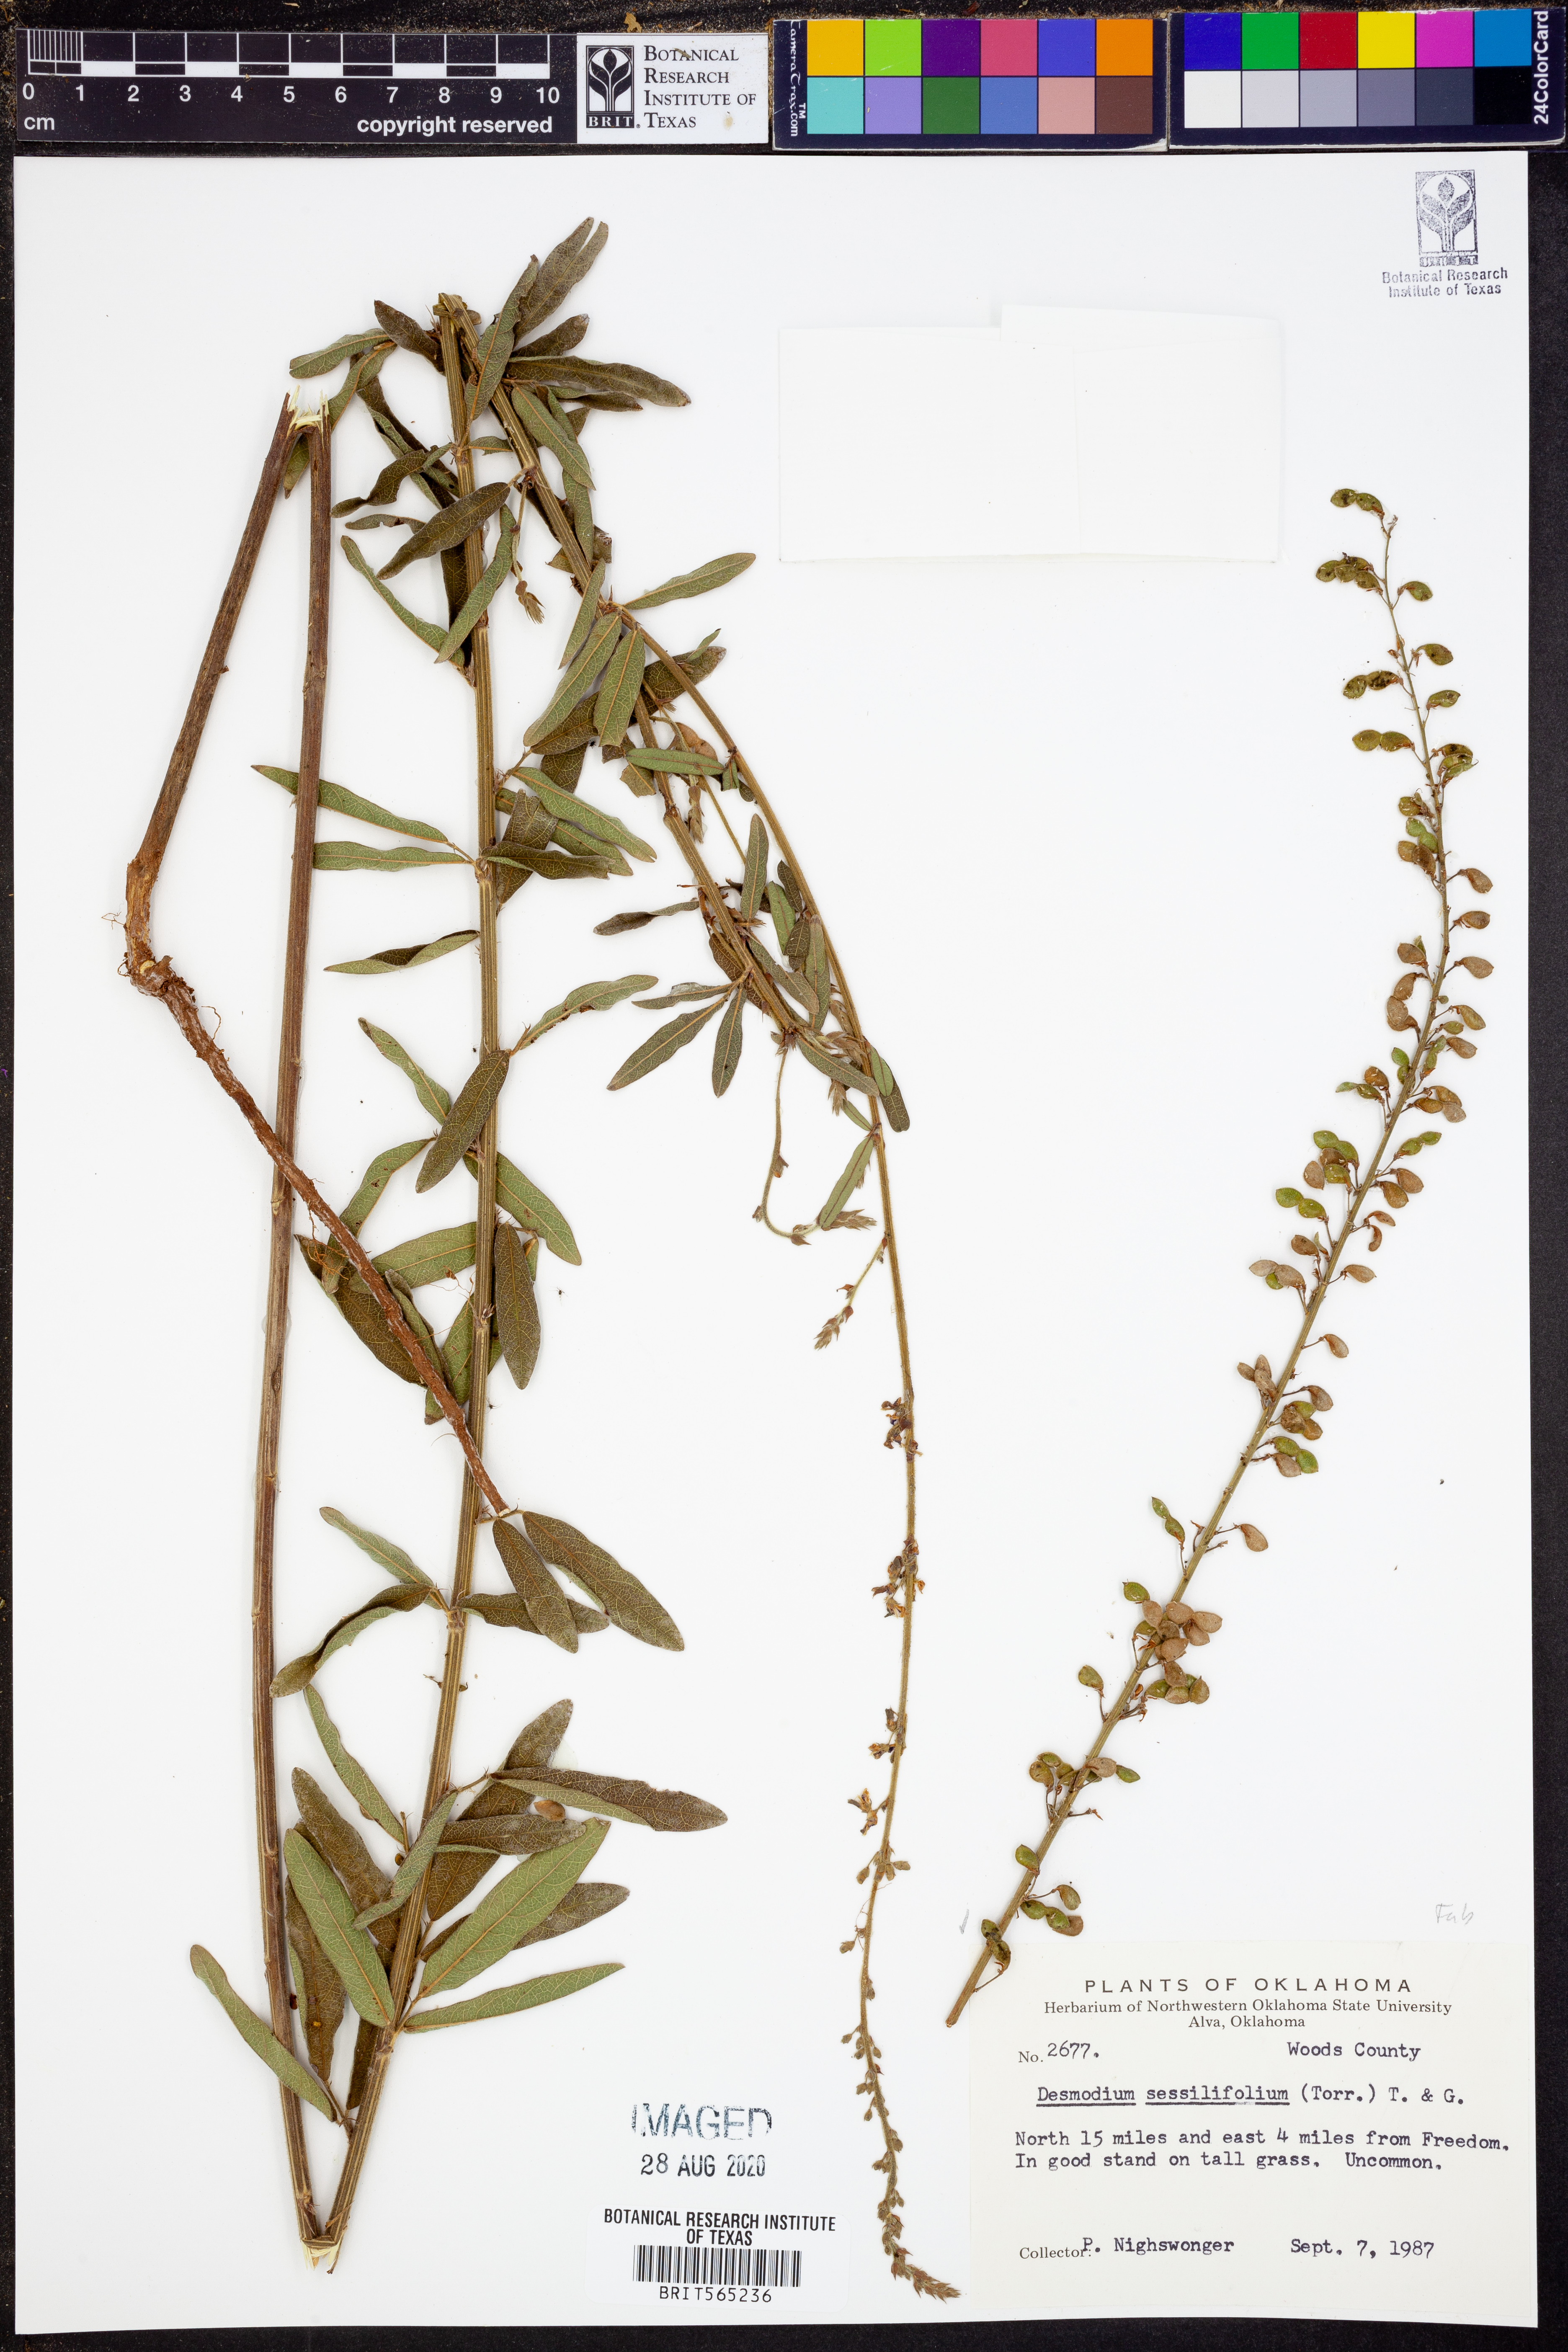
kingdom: Plantae
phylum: Tracheophyta
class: Magnoliopsida
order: Fabales
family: Fabaceae
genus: Desmodium
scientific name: Desmodium sessilifolium
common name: Sessile tick-clover
